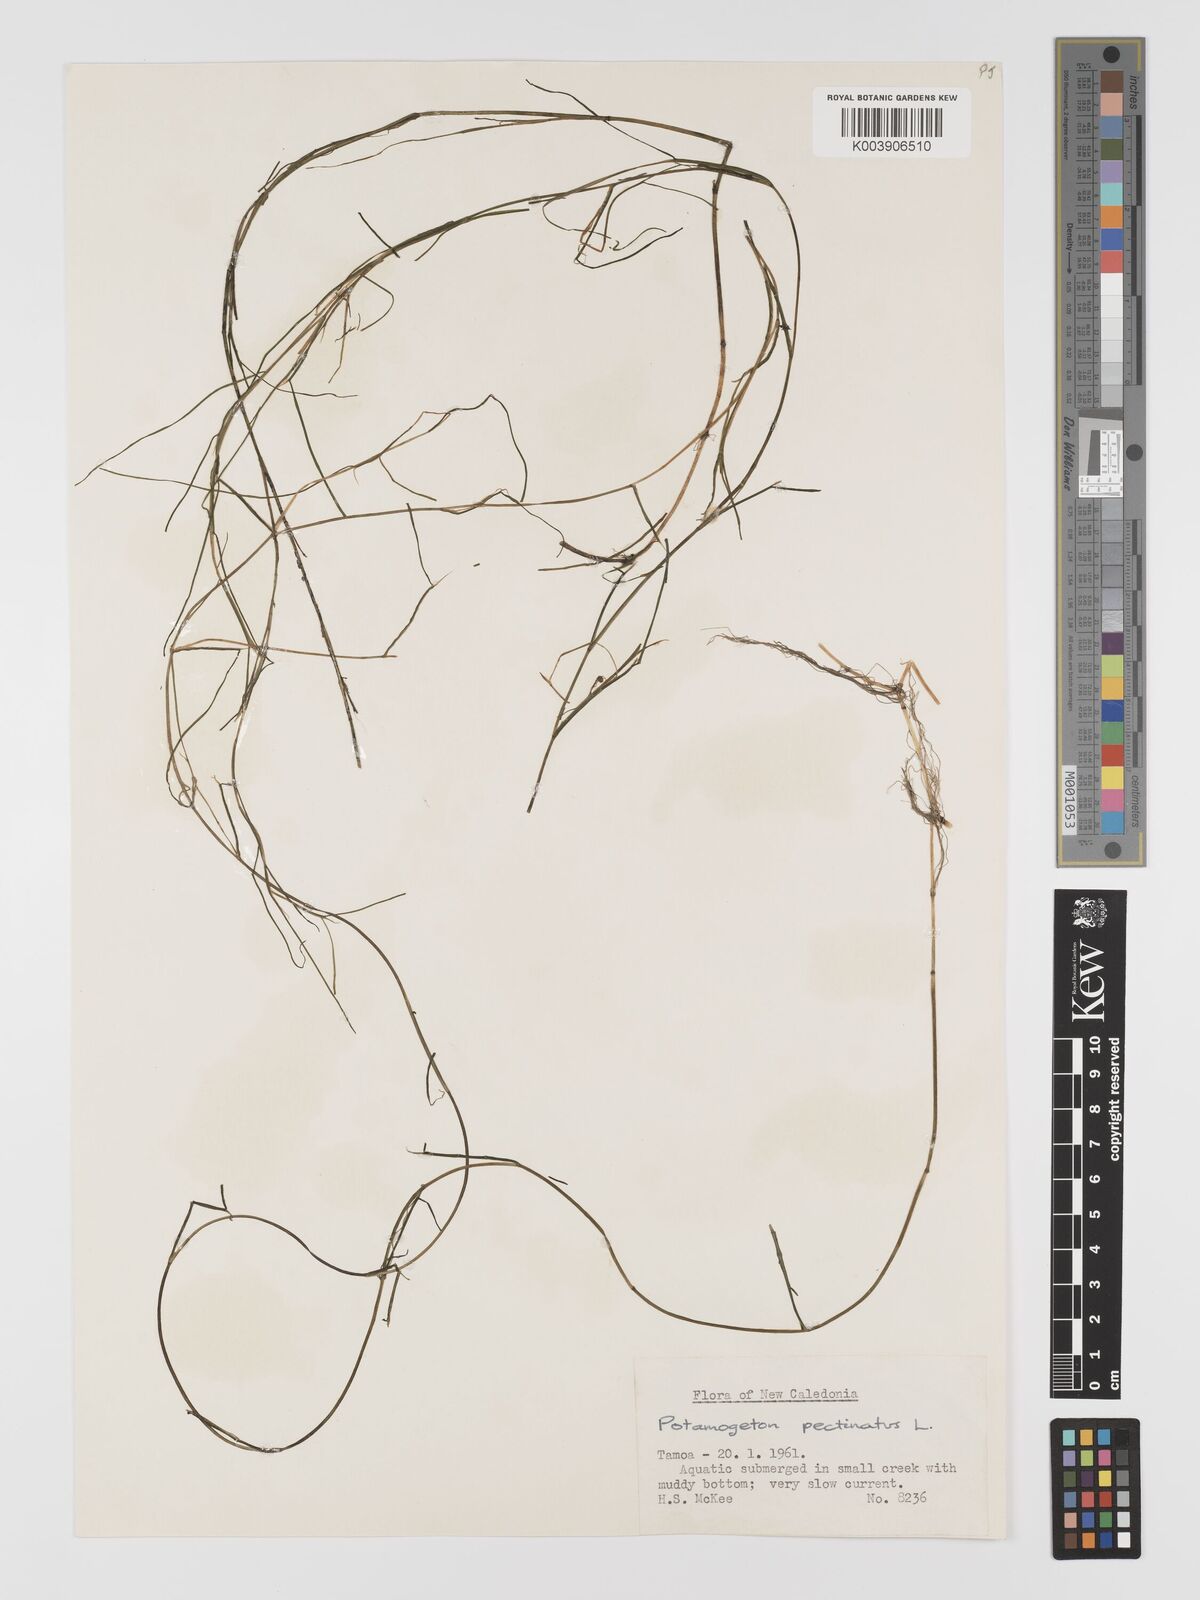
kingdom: Plantae
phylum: Tracheophyta
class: Liliopsida
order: Alismatales
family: Potamogetonaceae
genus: Stuckenia
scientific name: Stuckenia pectinata
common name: Sago pondweed
